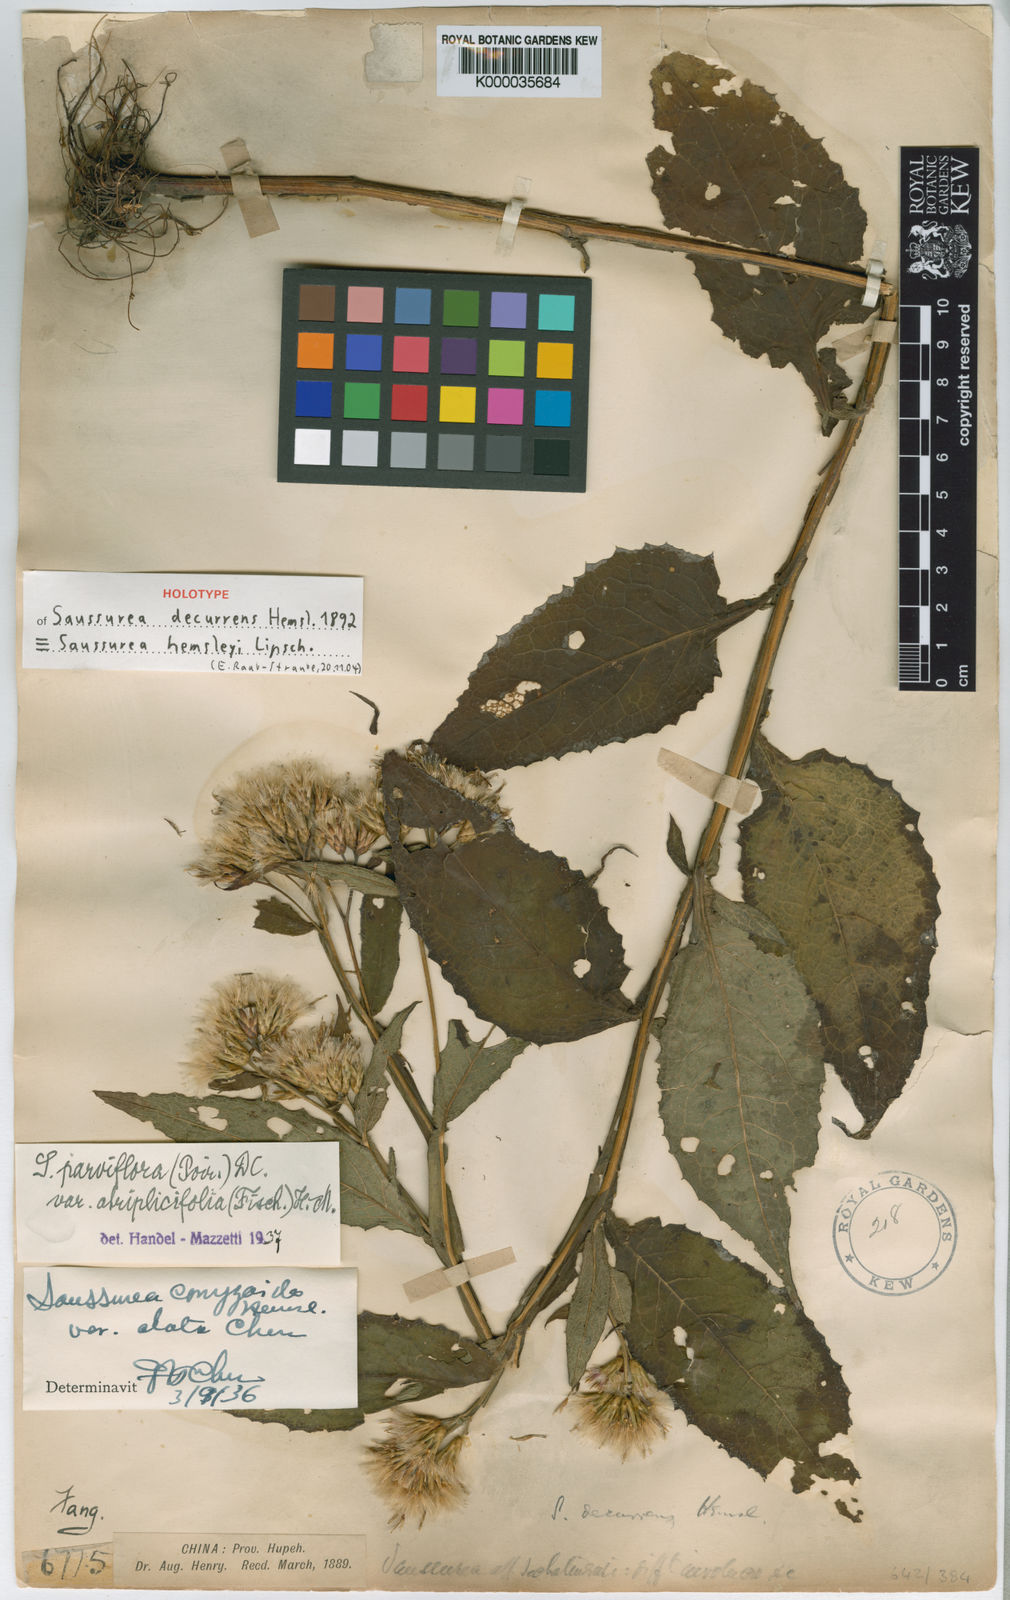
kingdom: Plantae
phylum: Tracheophyta
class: Magnoliopsida
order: Asterales
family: Asteraceae
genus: Saussurea
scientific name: Saussurea
